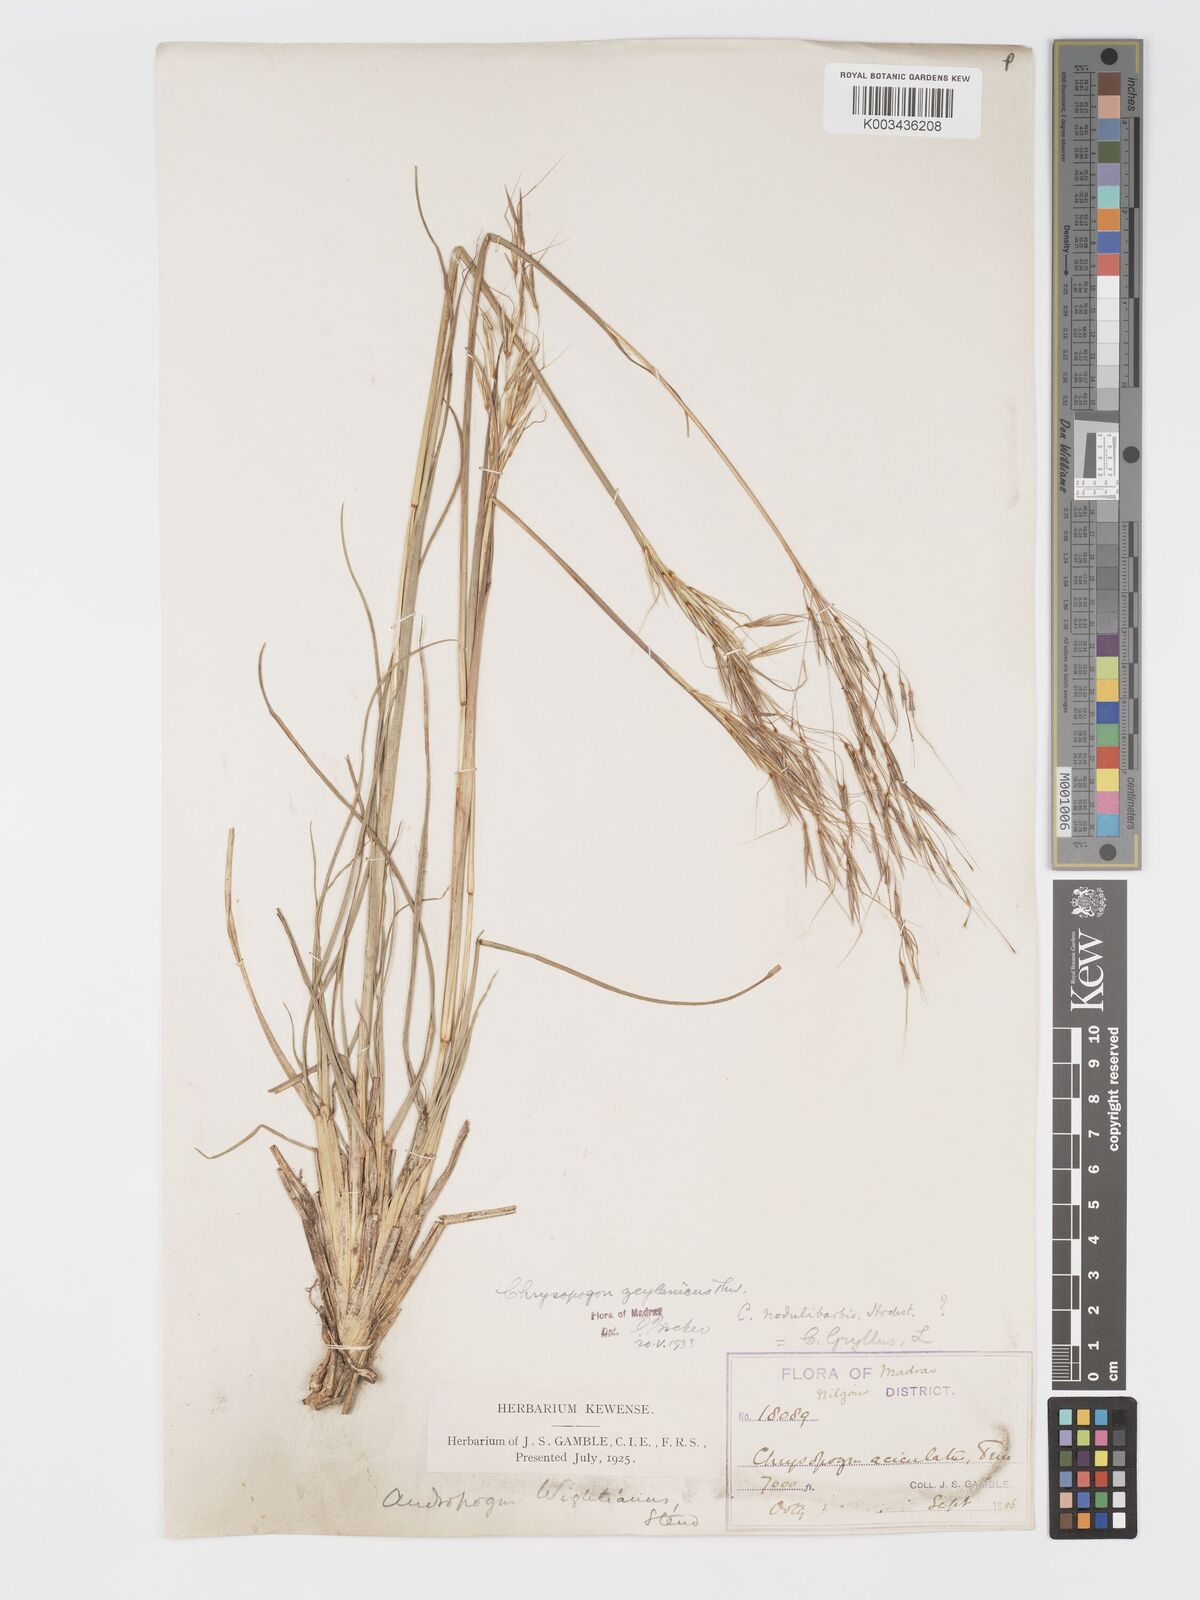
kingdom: Plantae
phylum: Tracheophyta
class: Liliopsida
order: Poales
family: Poaceae
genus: Chrysopogon
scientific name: Chrysopogon nodulibarbis
